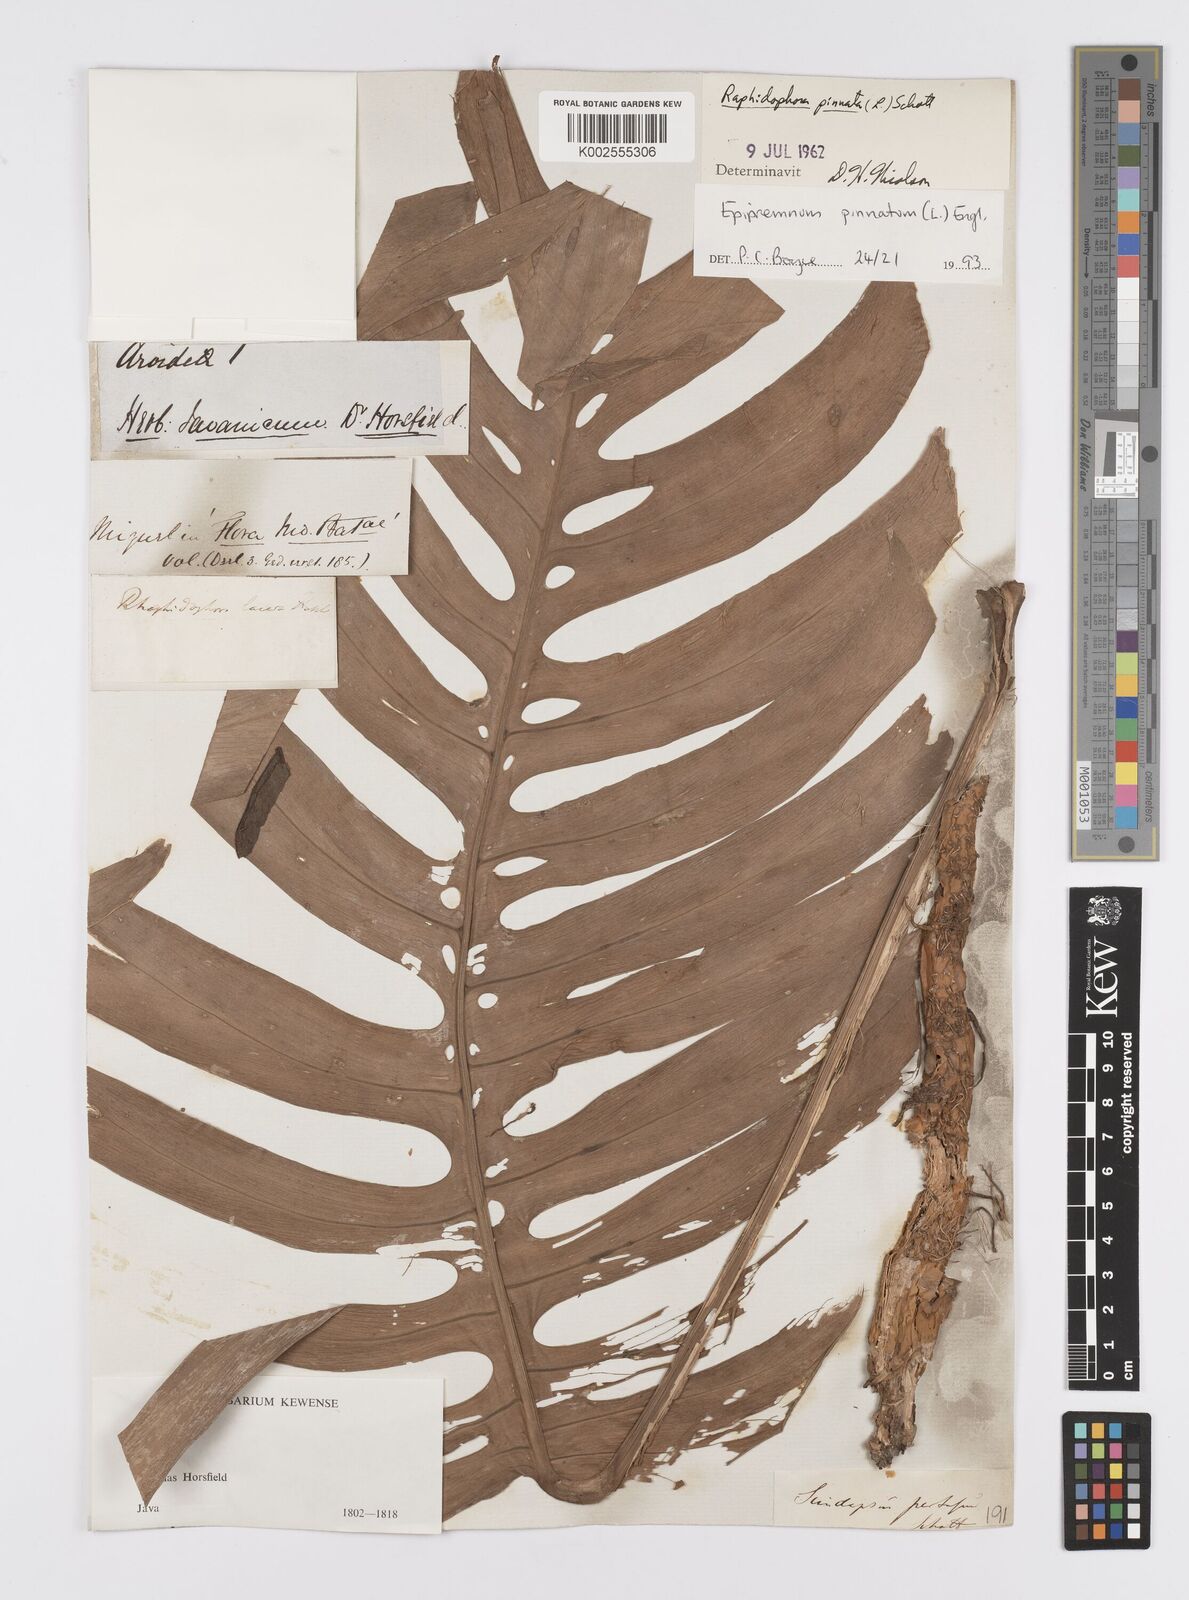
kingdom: Plantae
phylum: Tracheophyta
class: Liliopsida
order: Alismatales
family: Araceae
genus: Epipremnum
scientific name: Epipremnum pinnatum
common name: Centipede tongavine
